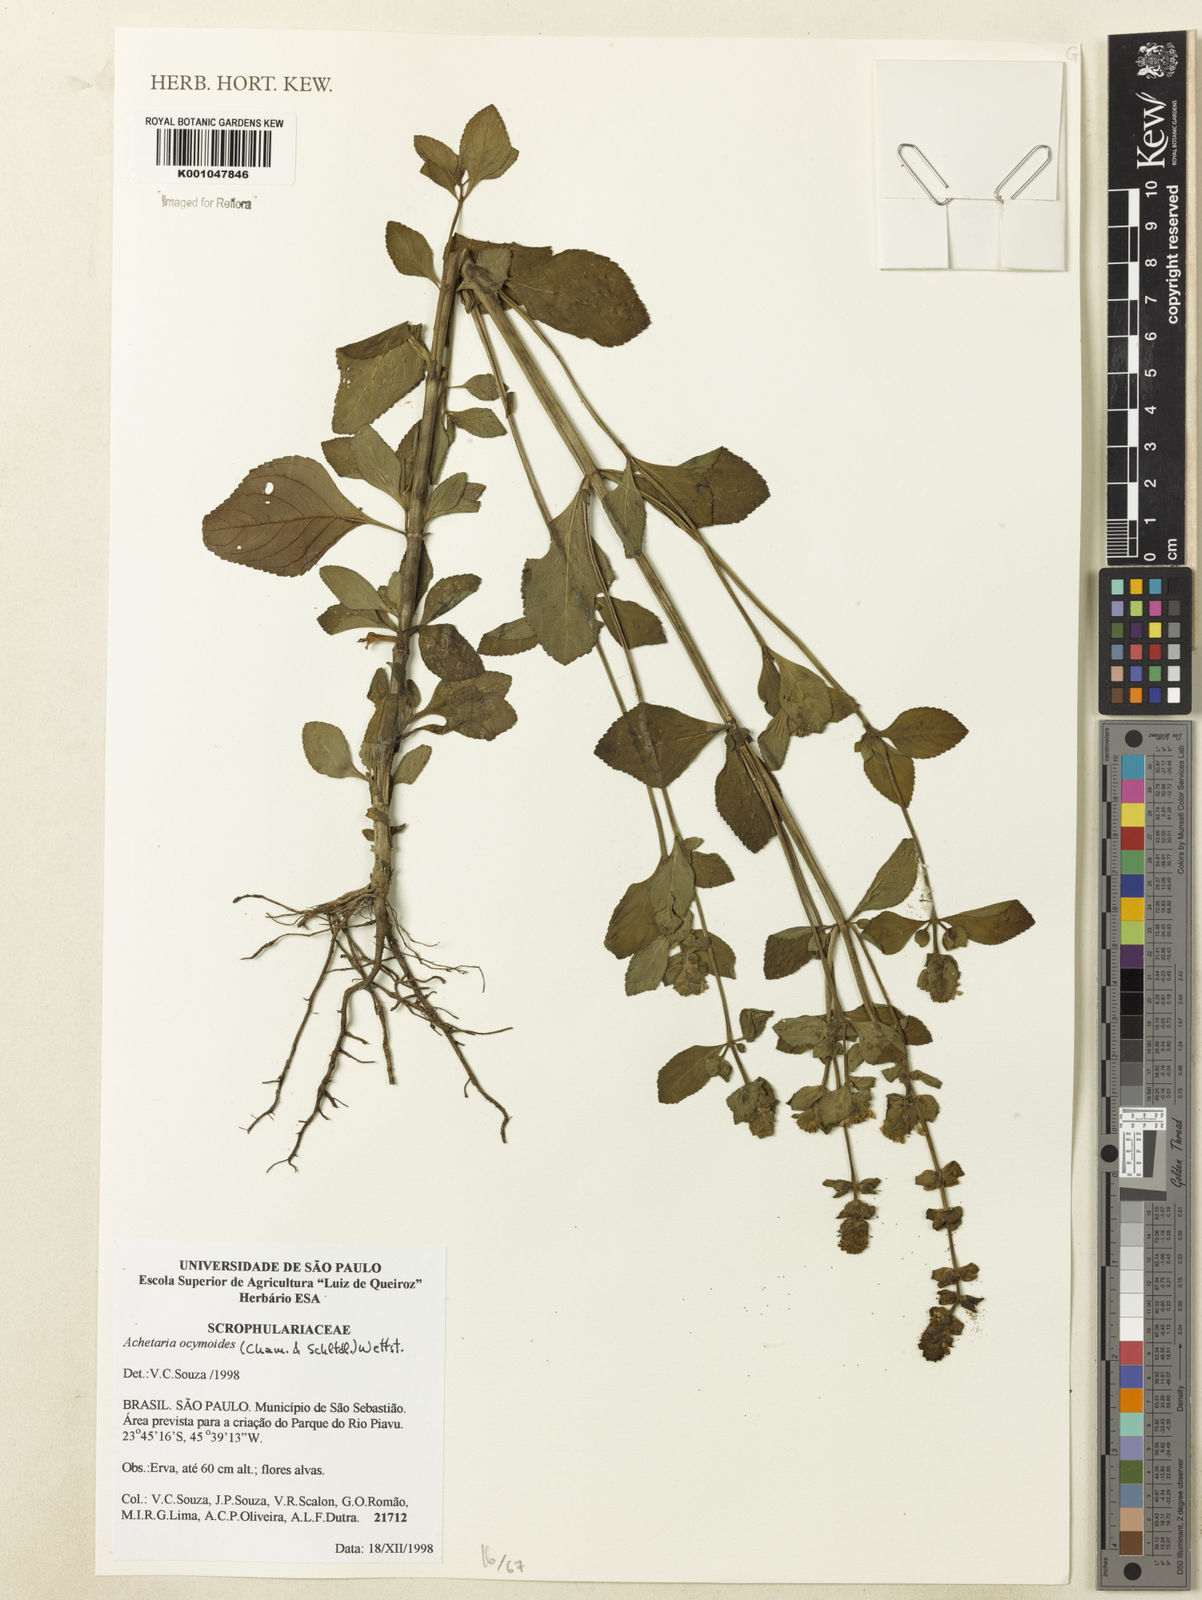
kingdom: Plantae
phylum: Tracheophyta
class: Magnoliopsida
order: Lamiales
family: Plantaginaceae
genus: Matourea
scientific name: Matourea ocymoides
